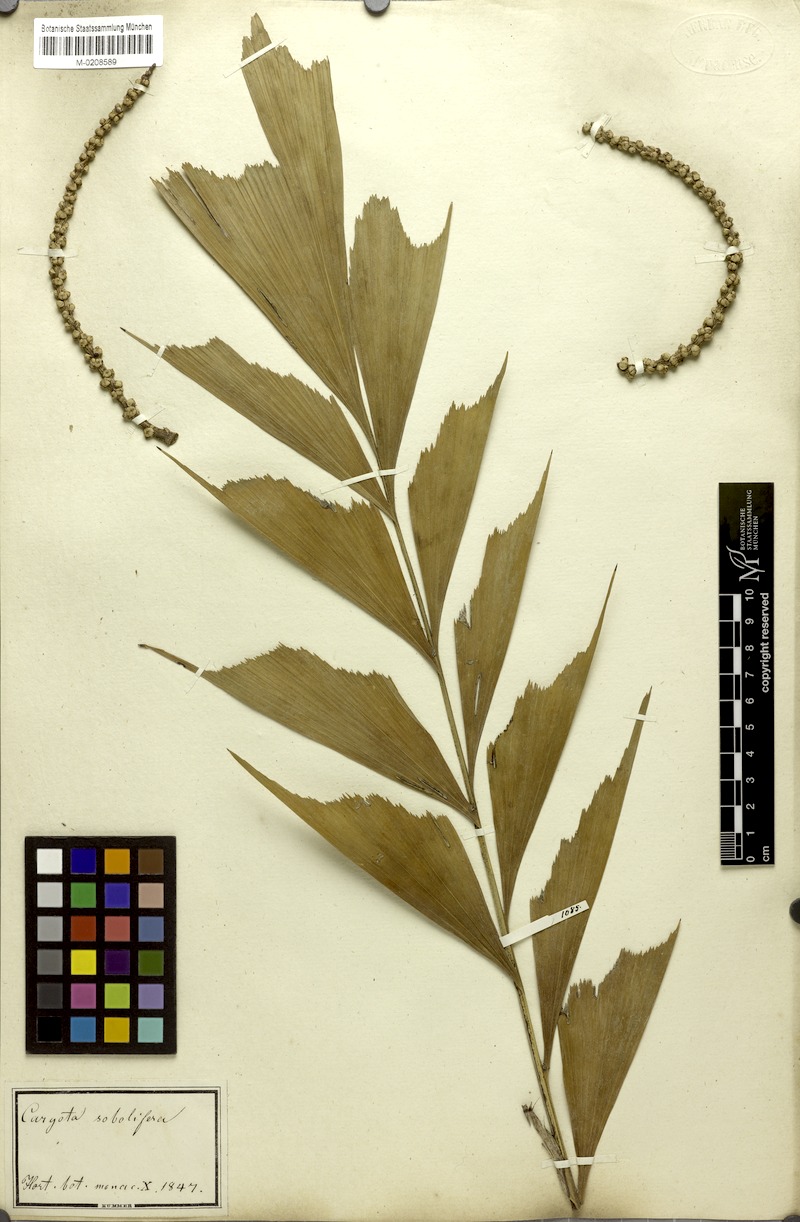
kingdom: Plantae
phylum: Tracheophyta
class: Liliopsida
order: Arecales
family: Arecaceae
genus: Caryota
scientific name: Caryota mitis
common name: Burmese fishtail palm
